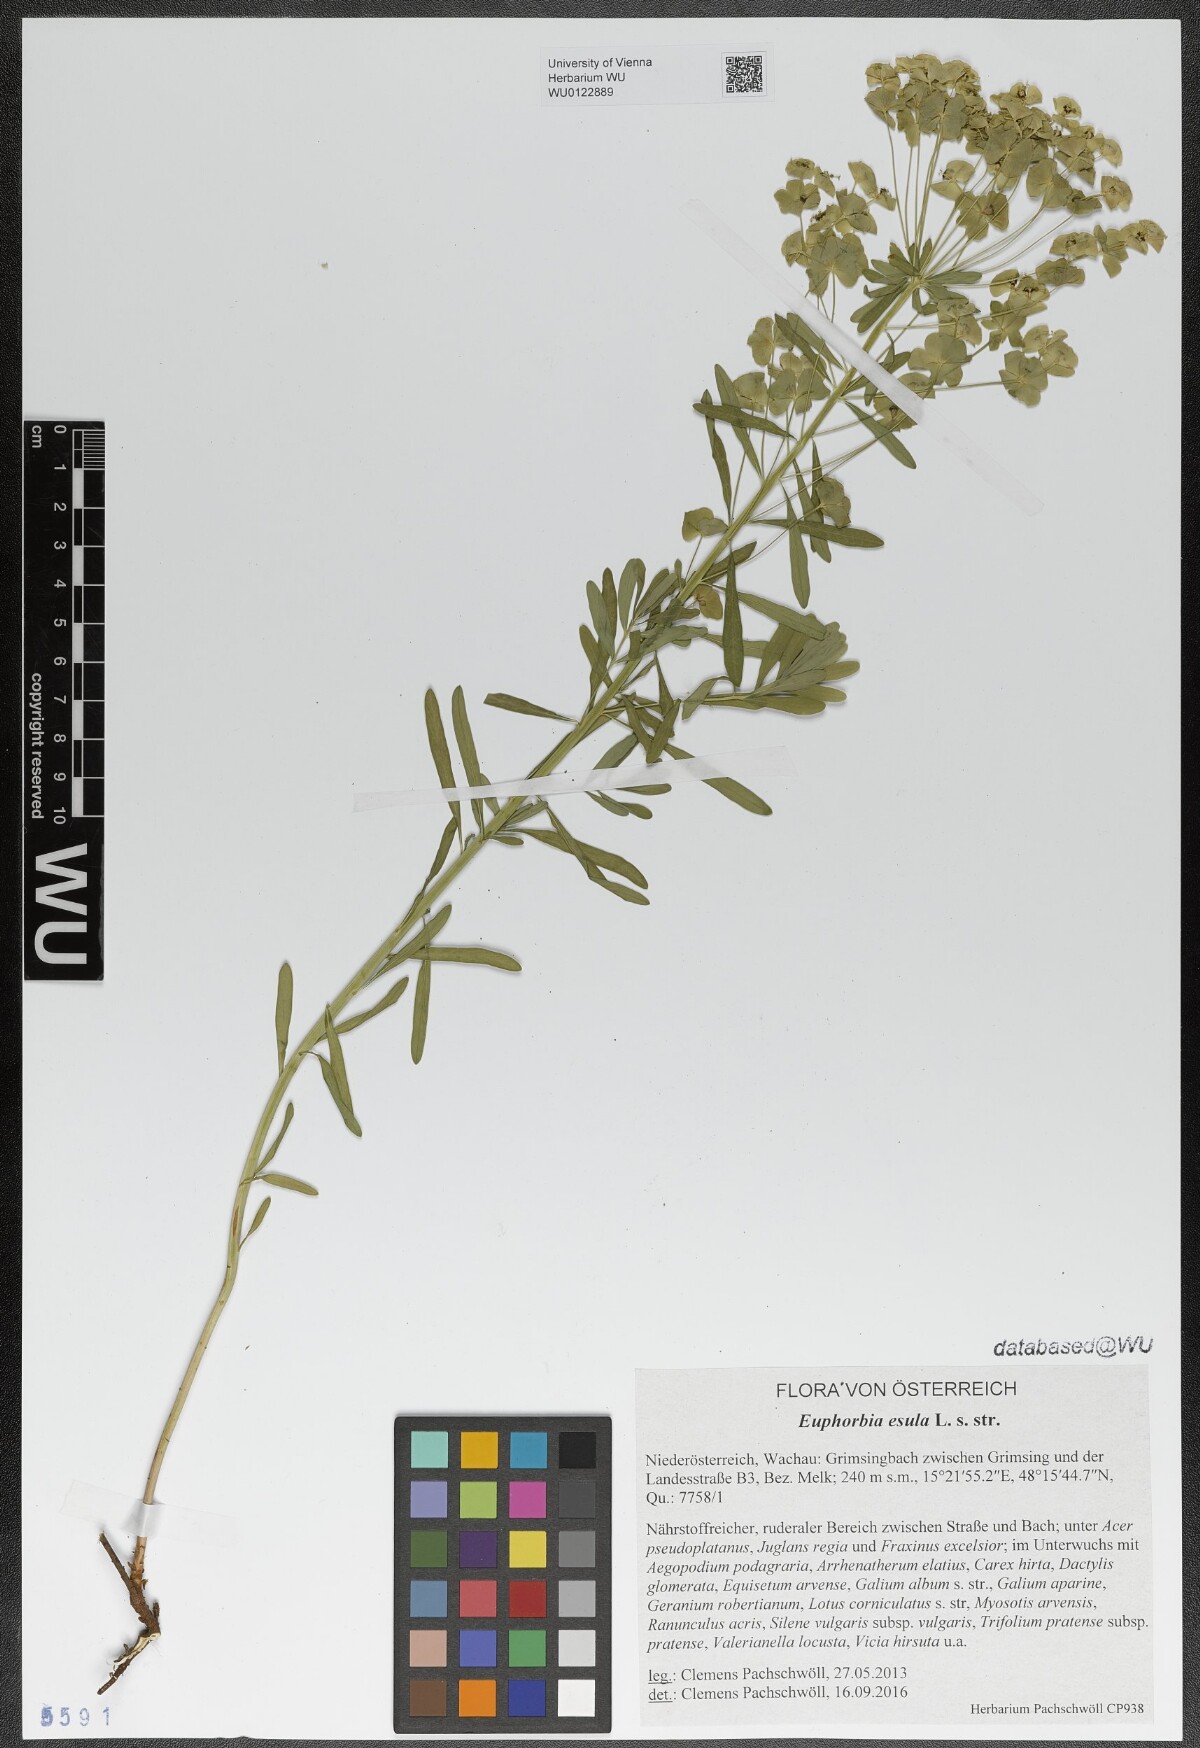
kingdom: Plantae
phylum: Tracheophyta
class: Magnoliopsida
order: Malpighiales
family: Euphorbiaceae
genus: Euphorbia
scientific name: Euphorbia esula
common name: Leafy spurge
